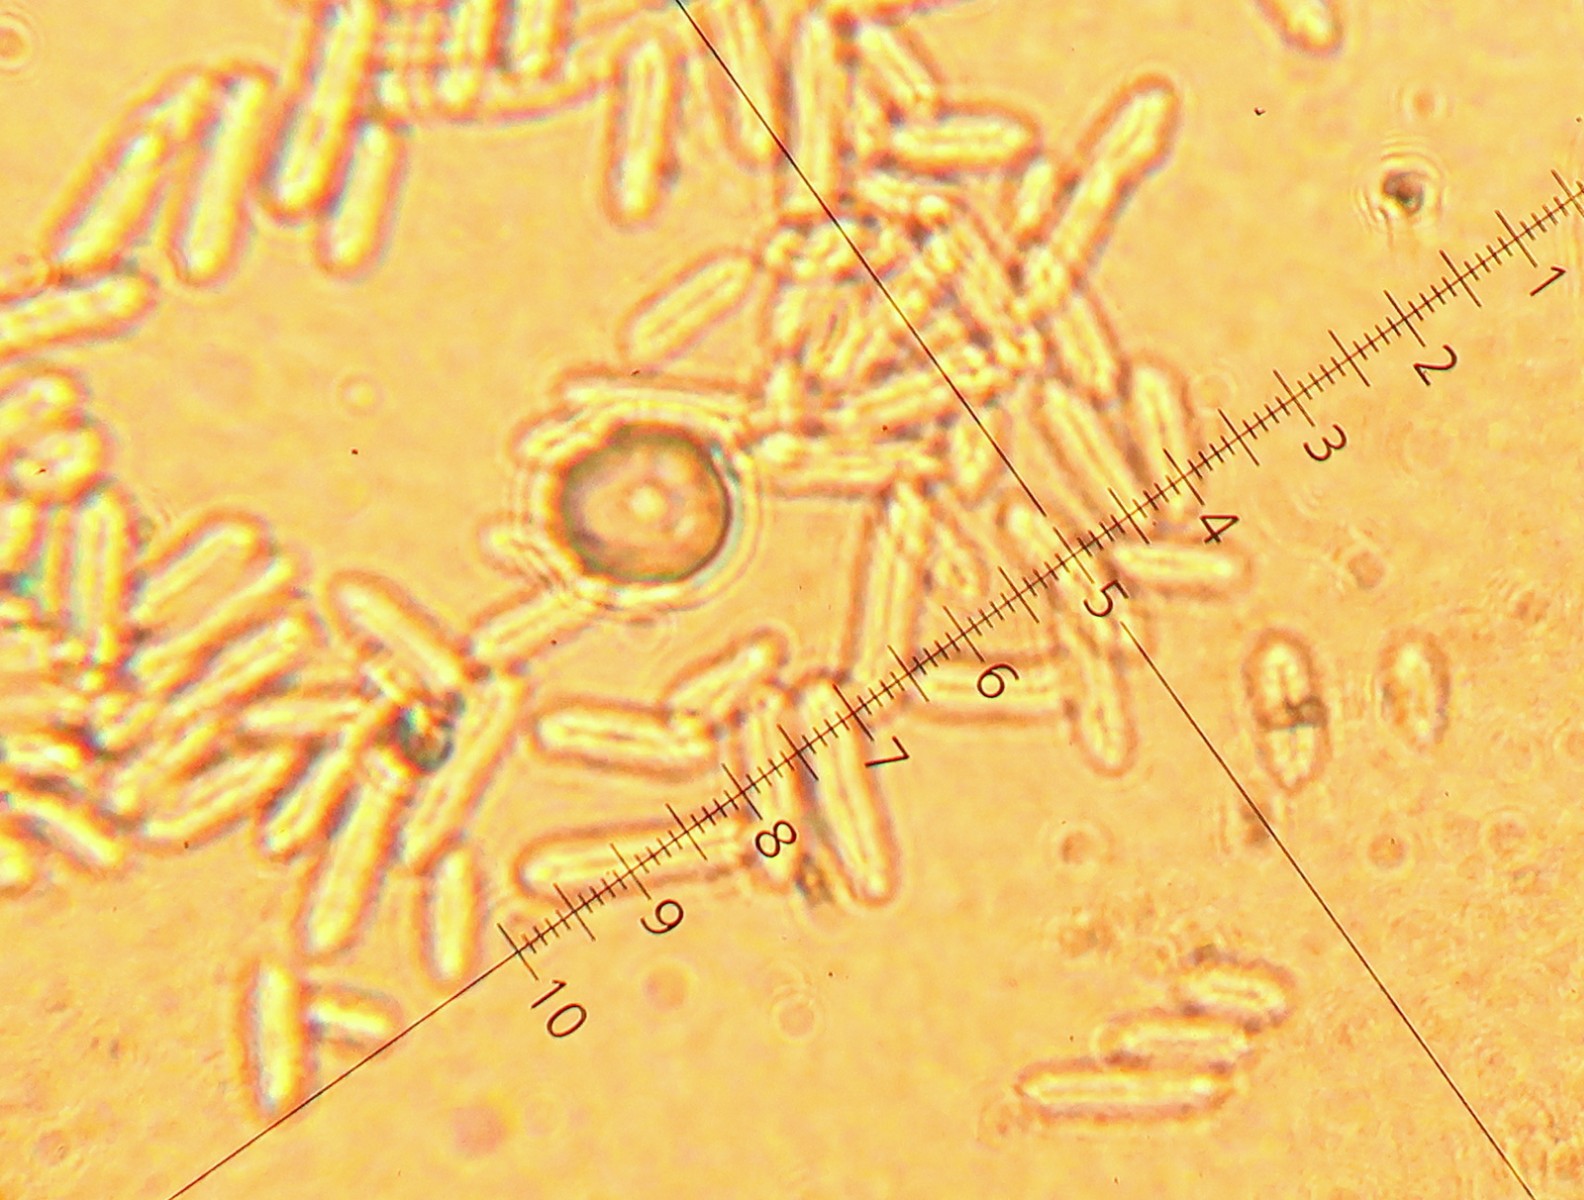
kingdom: Fungi
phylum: Ascomycota
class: Dothideomycetes
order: Mycosphaerellales
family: Mycosphaerellaceae
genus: Ramularia
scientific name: Ramularia glechomatis
